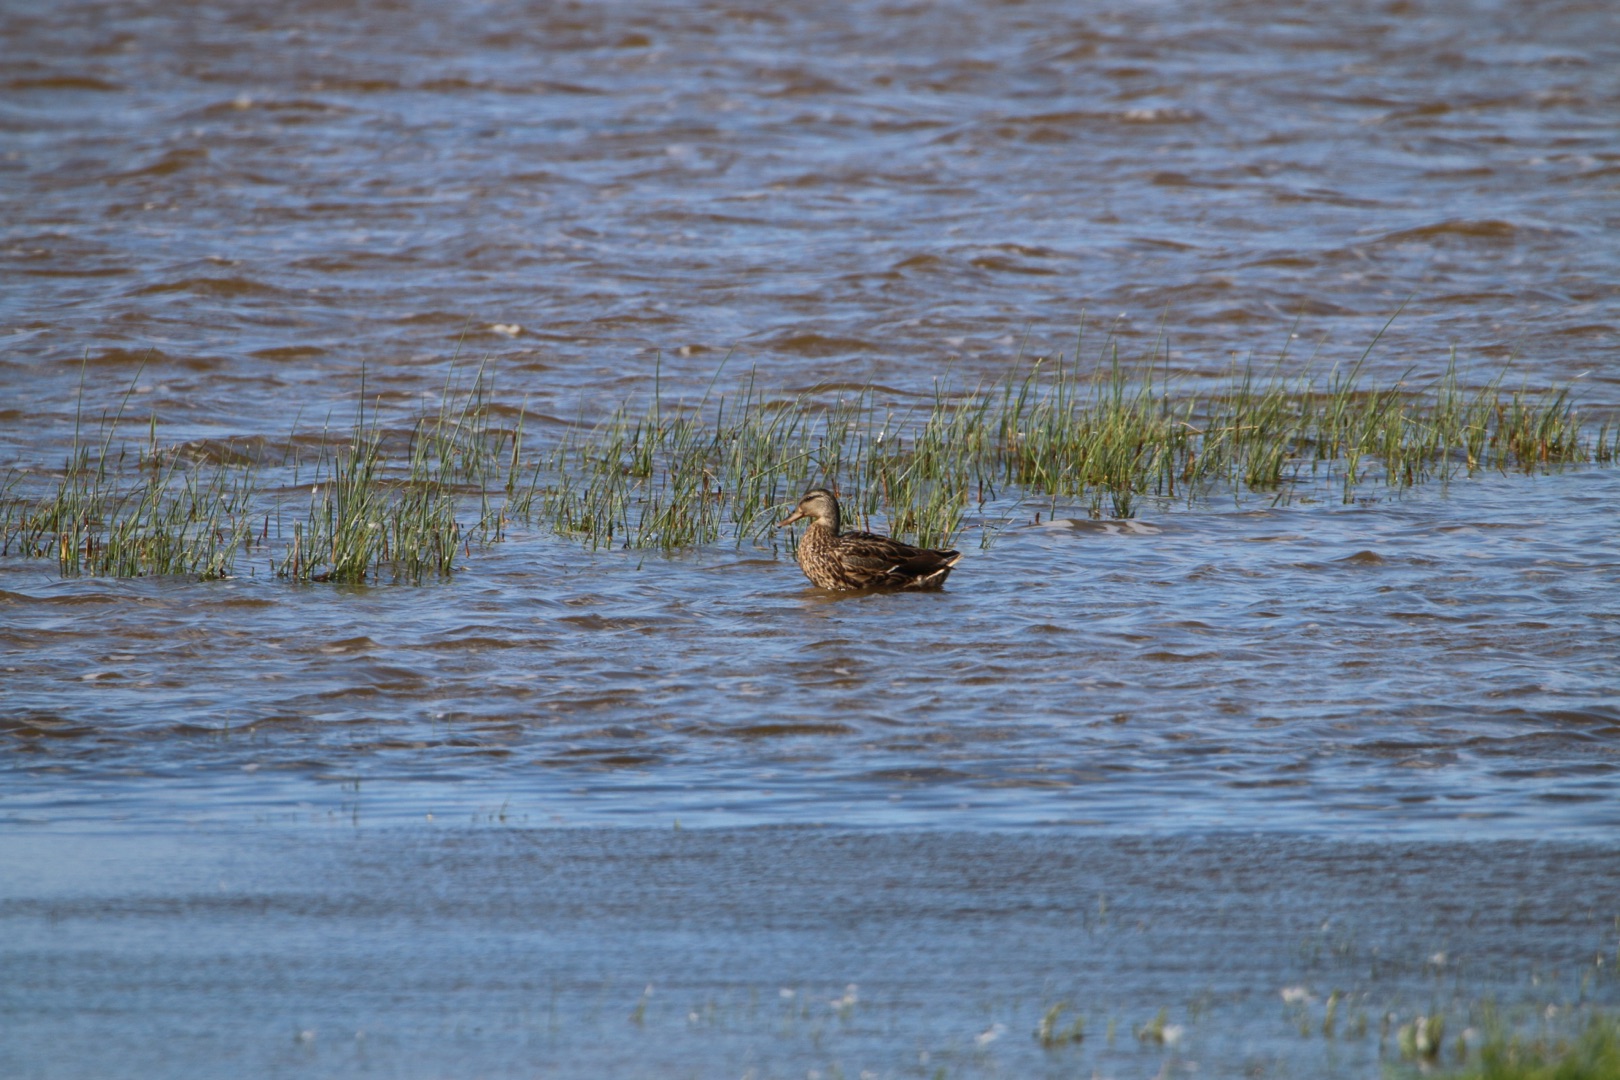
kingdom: Animalia
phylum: Chordata
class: Aves
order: Anseriformes
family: Anatidae
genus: Anas
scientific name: Anas platyrhynchos
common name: Gråand
